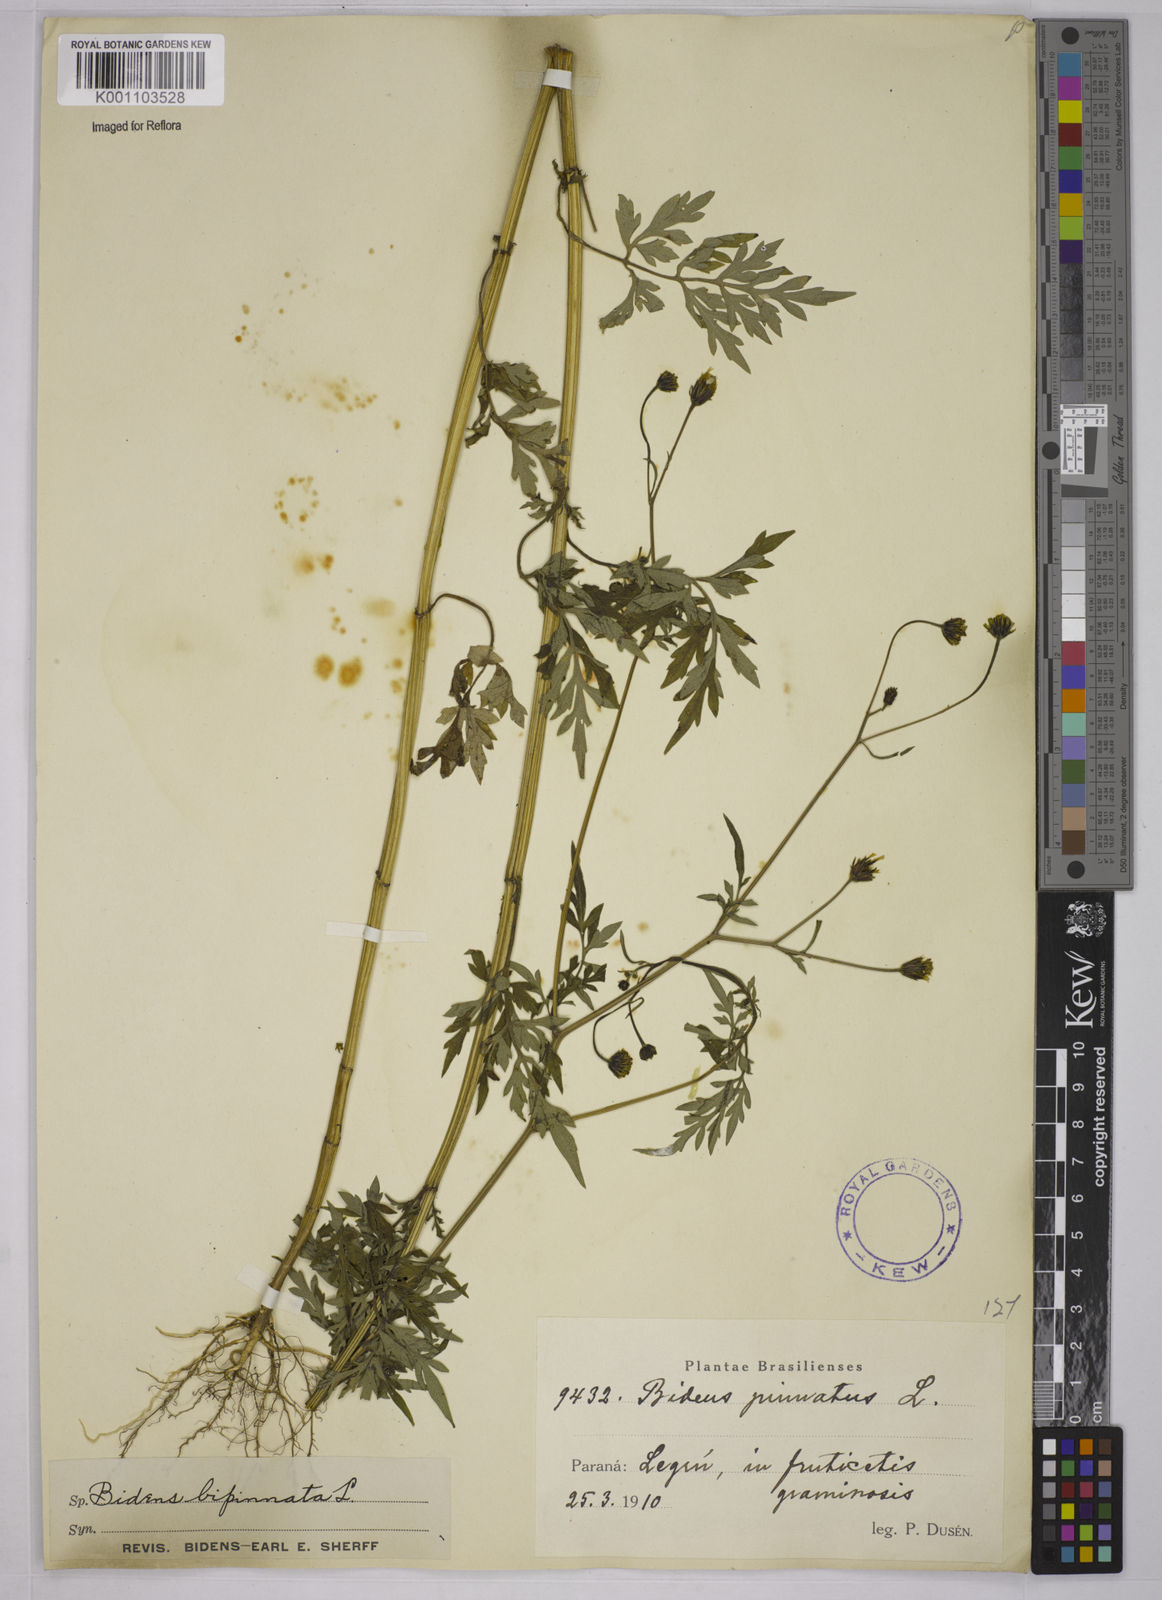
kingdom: Plantae
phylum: Tracheophyta
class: Magnoliopsida
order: Asterales
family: Asteraceae
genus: Bidens
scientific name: Bidens bipinnata
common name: Spanish-needles
